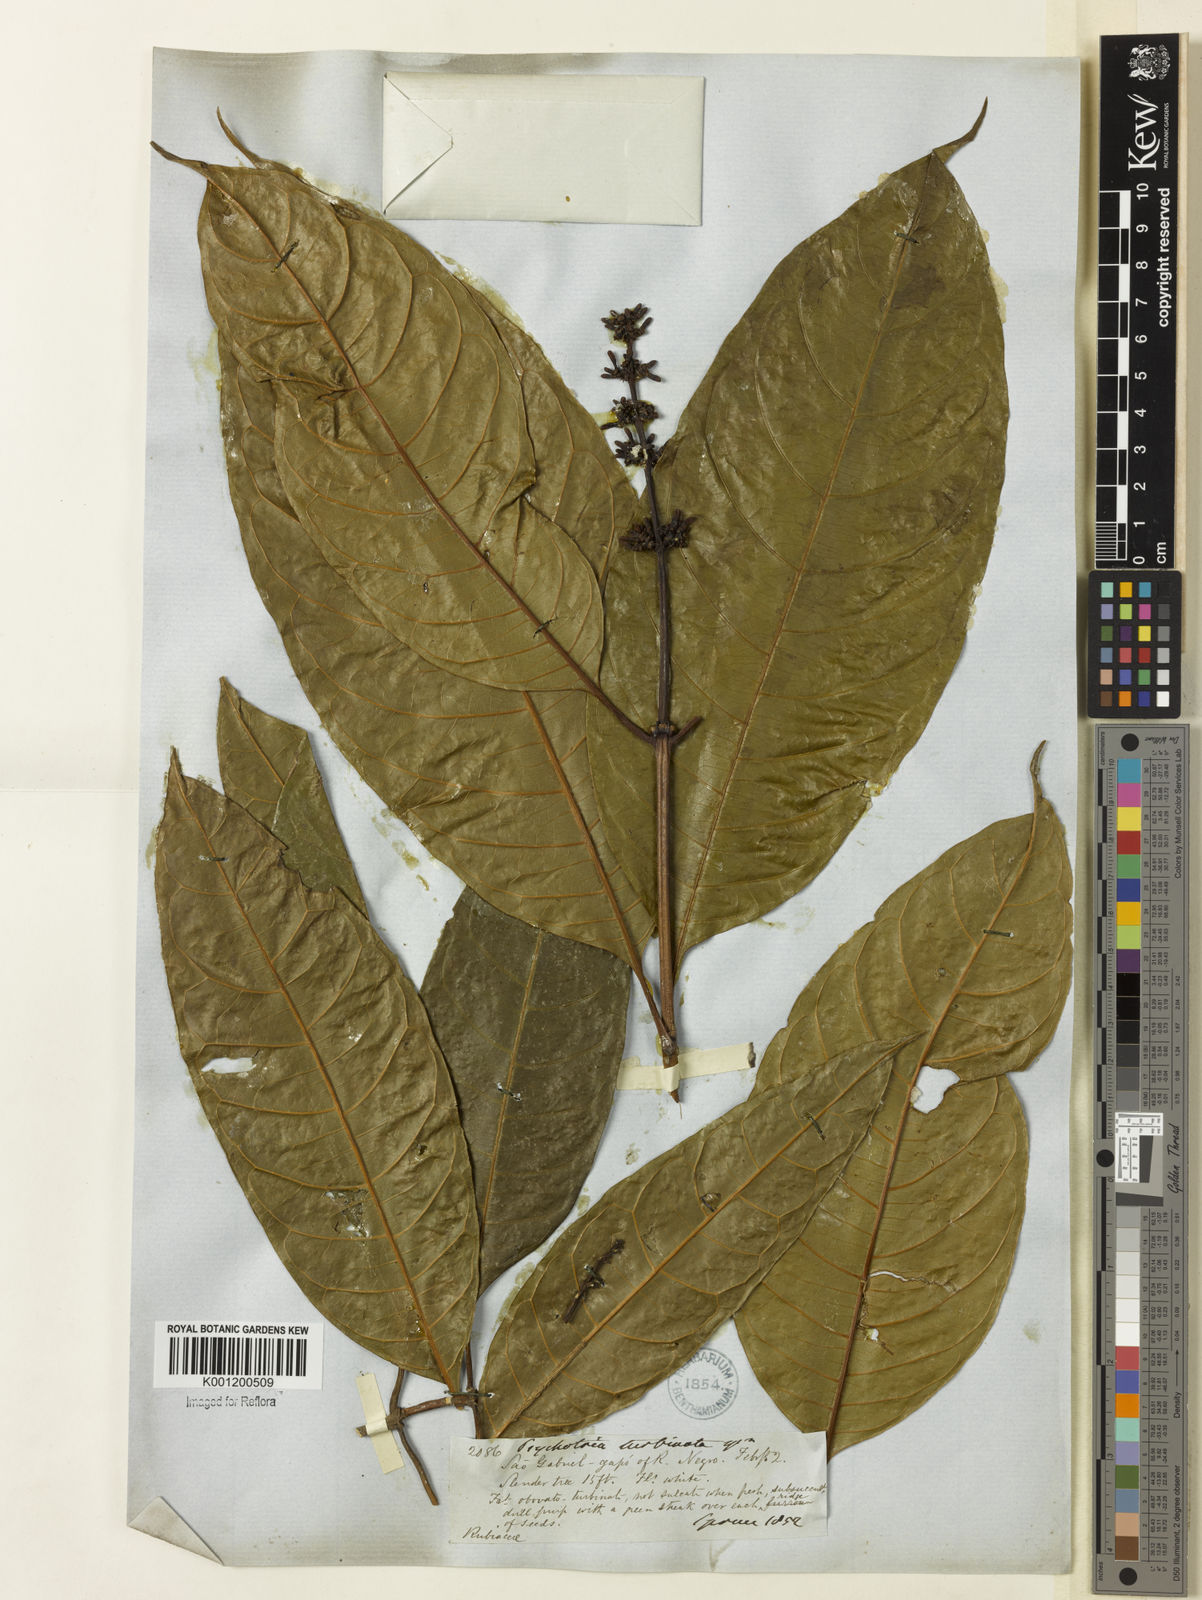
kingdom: Plantae
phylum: Tracheophyta
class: Magnoliopsida
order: Gentianales
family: Rubiaceae
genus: Psychotria
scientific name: Psychotria turbinata
